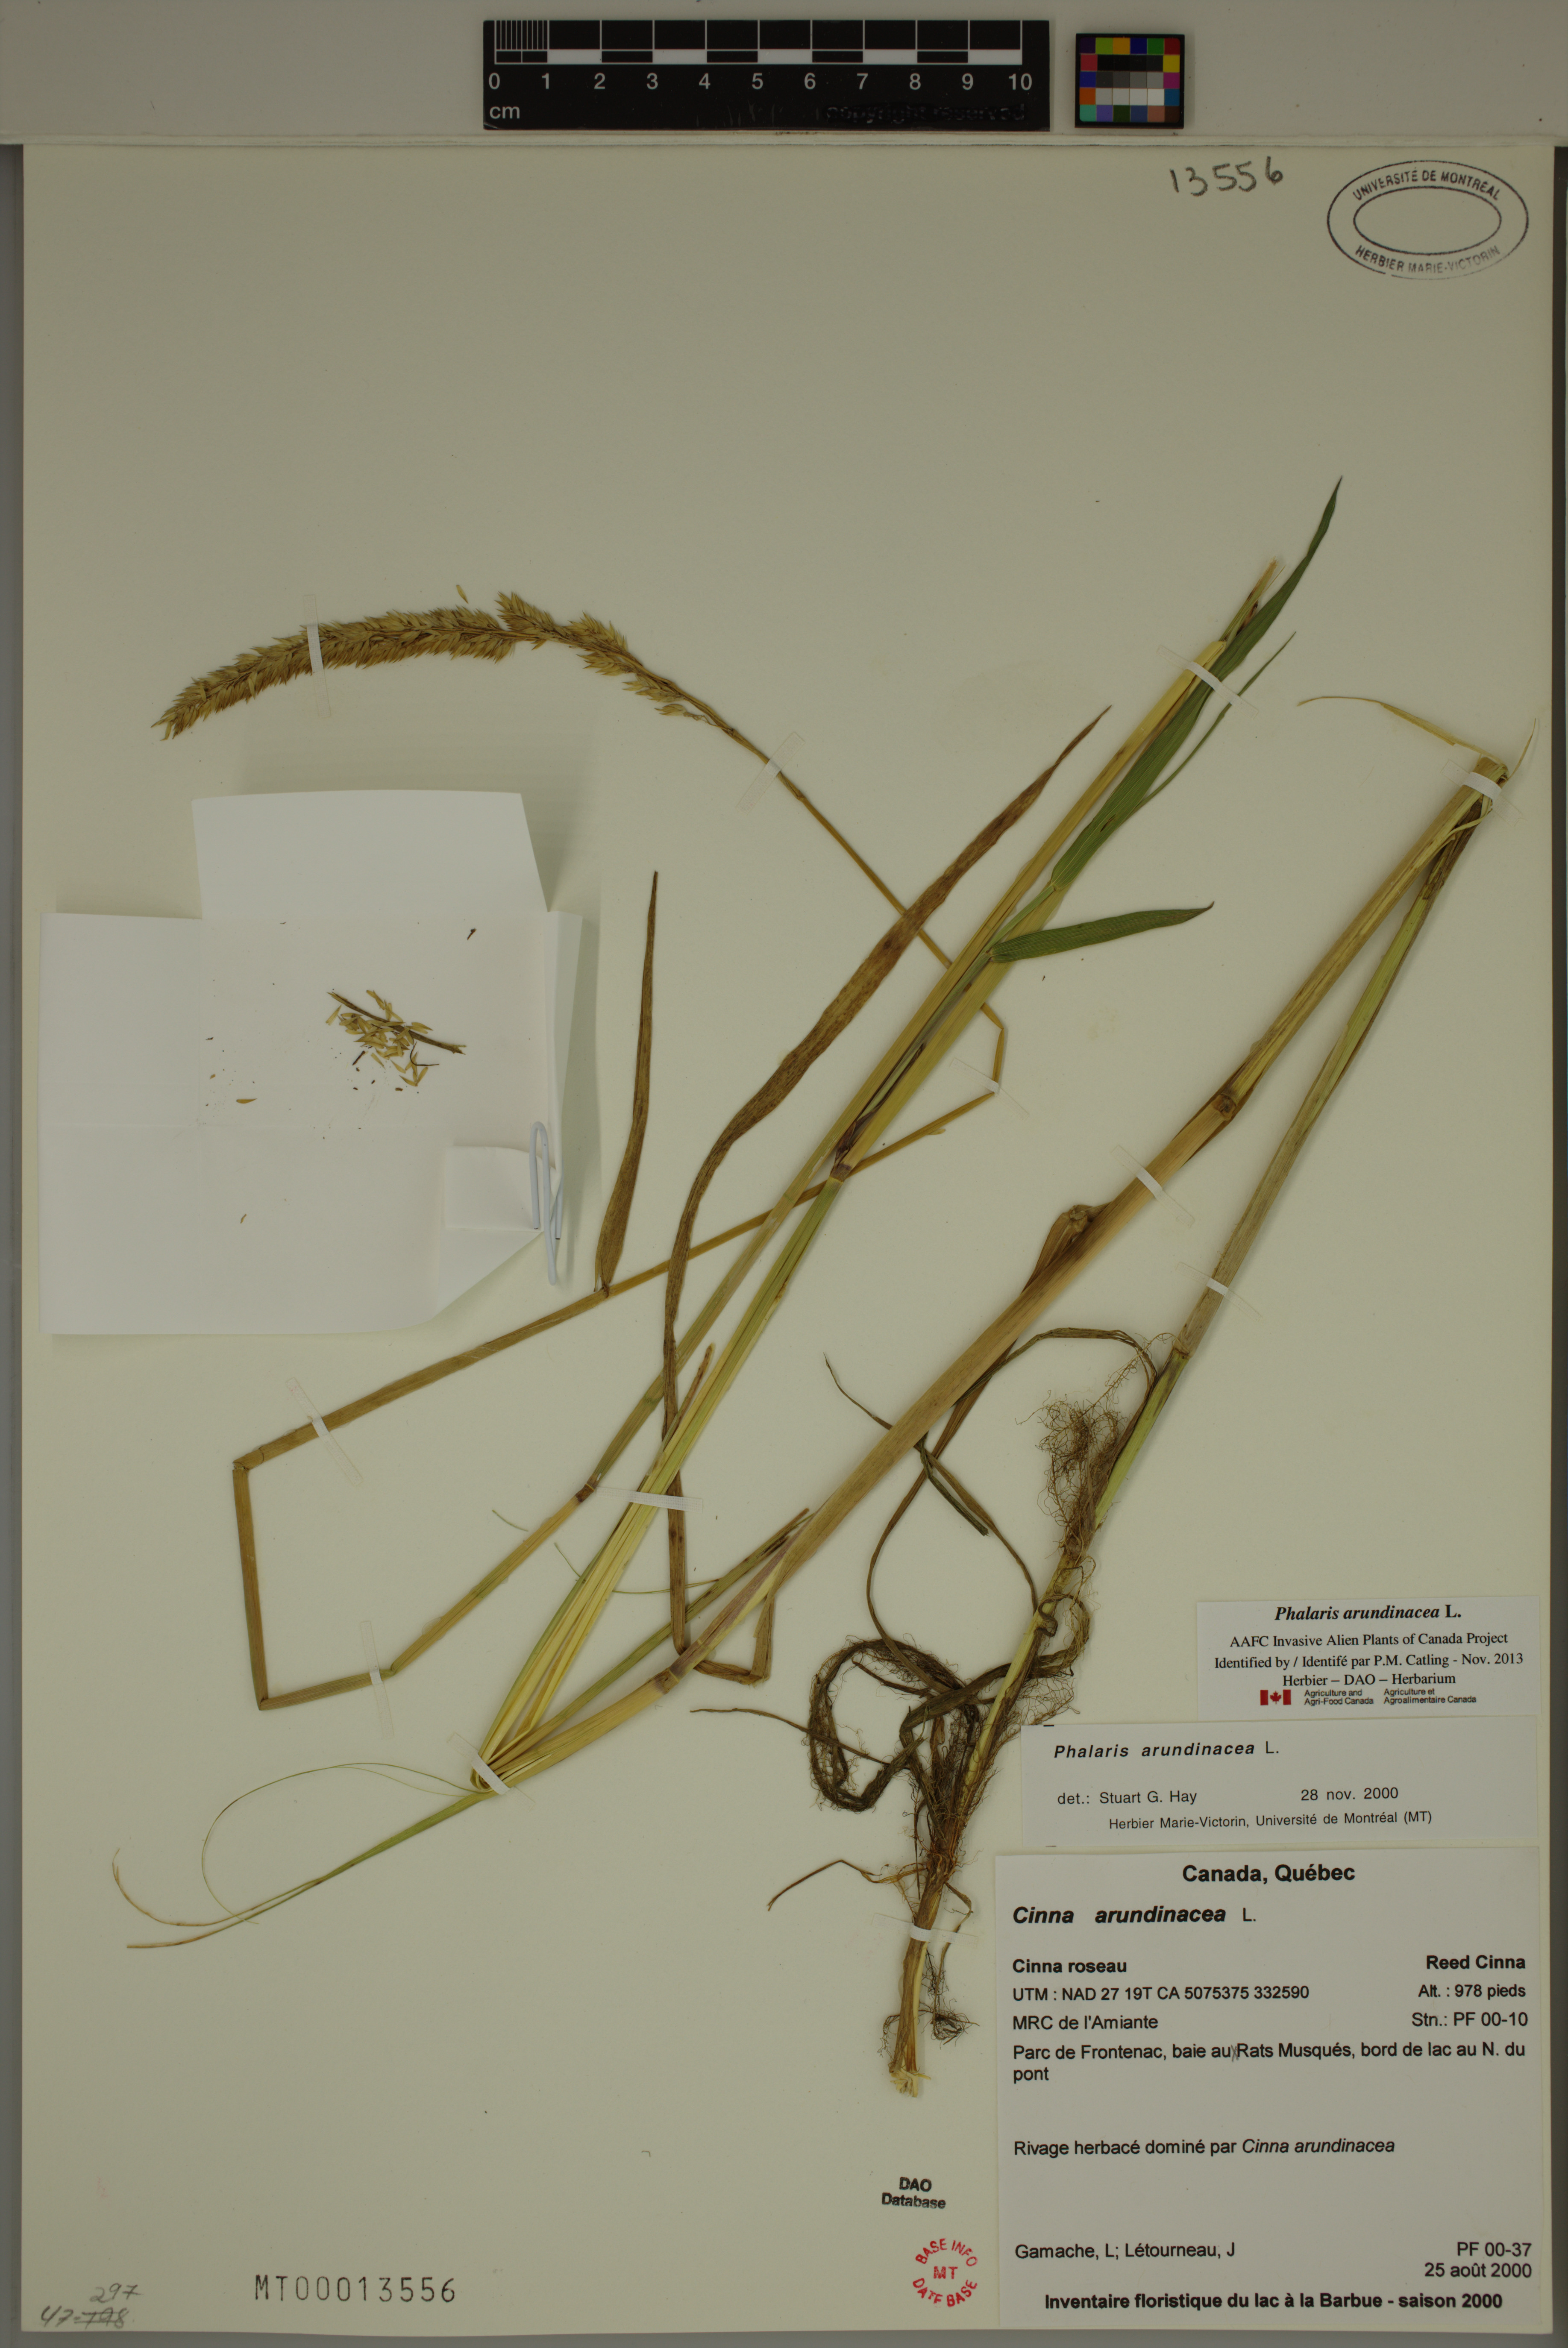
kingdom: Plantae
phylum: Tracheophyta
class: Liliopsida
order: Poales
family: Poaceae
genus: Phalaris
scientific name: Phalaris arundinacea
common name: Reed canary-grass
